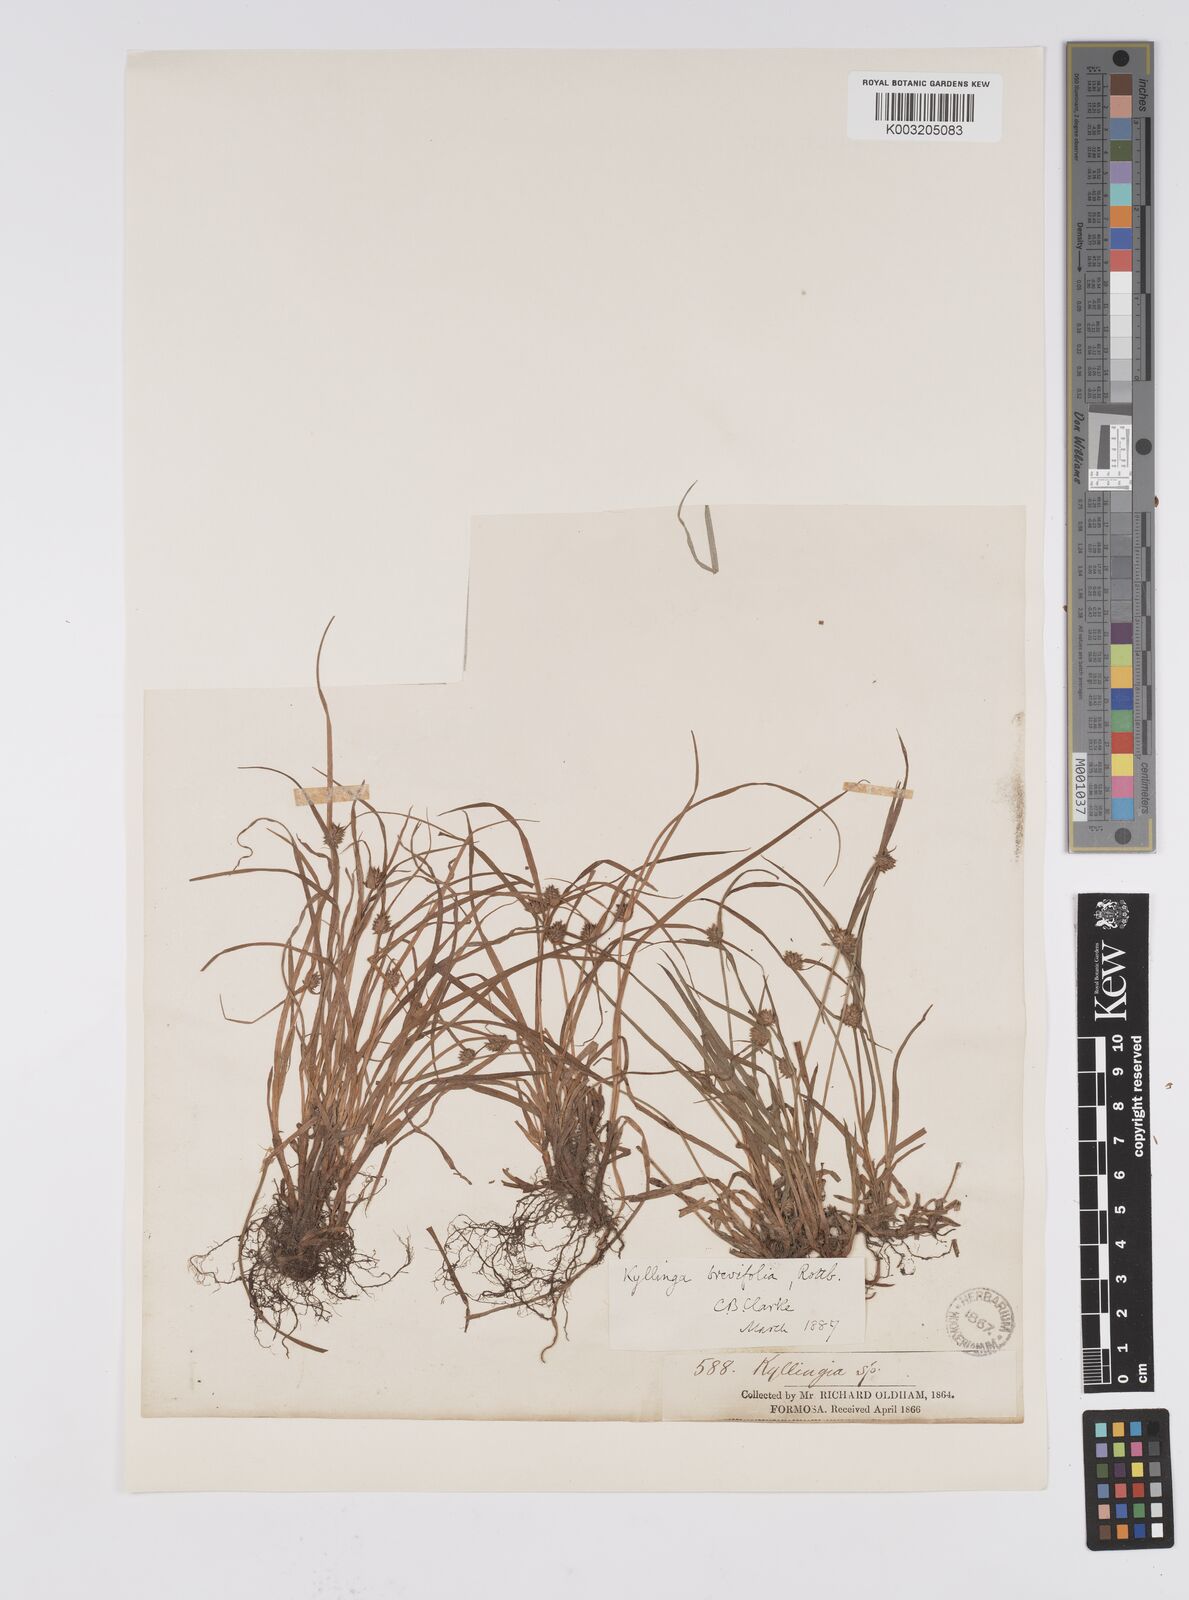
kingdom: Plantae
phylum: Tracheophyta
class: Liliopsida
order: Poales
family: Cyperaceae
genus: Cyperus
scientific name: Cyperus brevifolius
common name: Globe kyllinga
